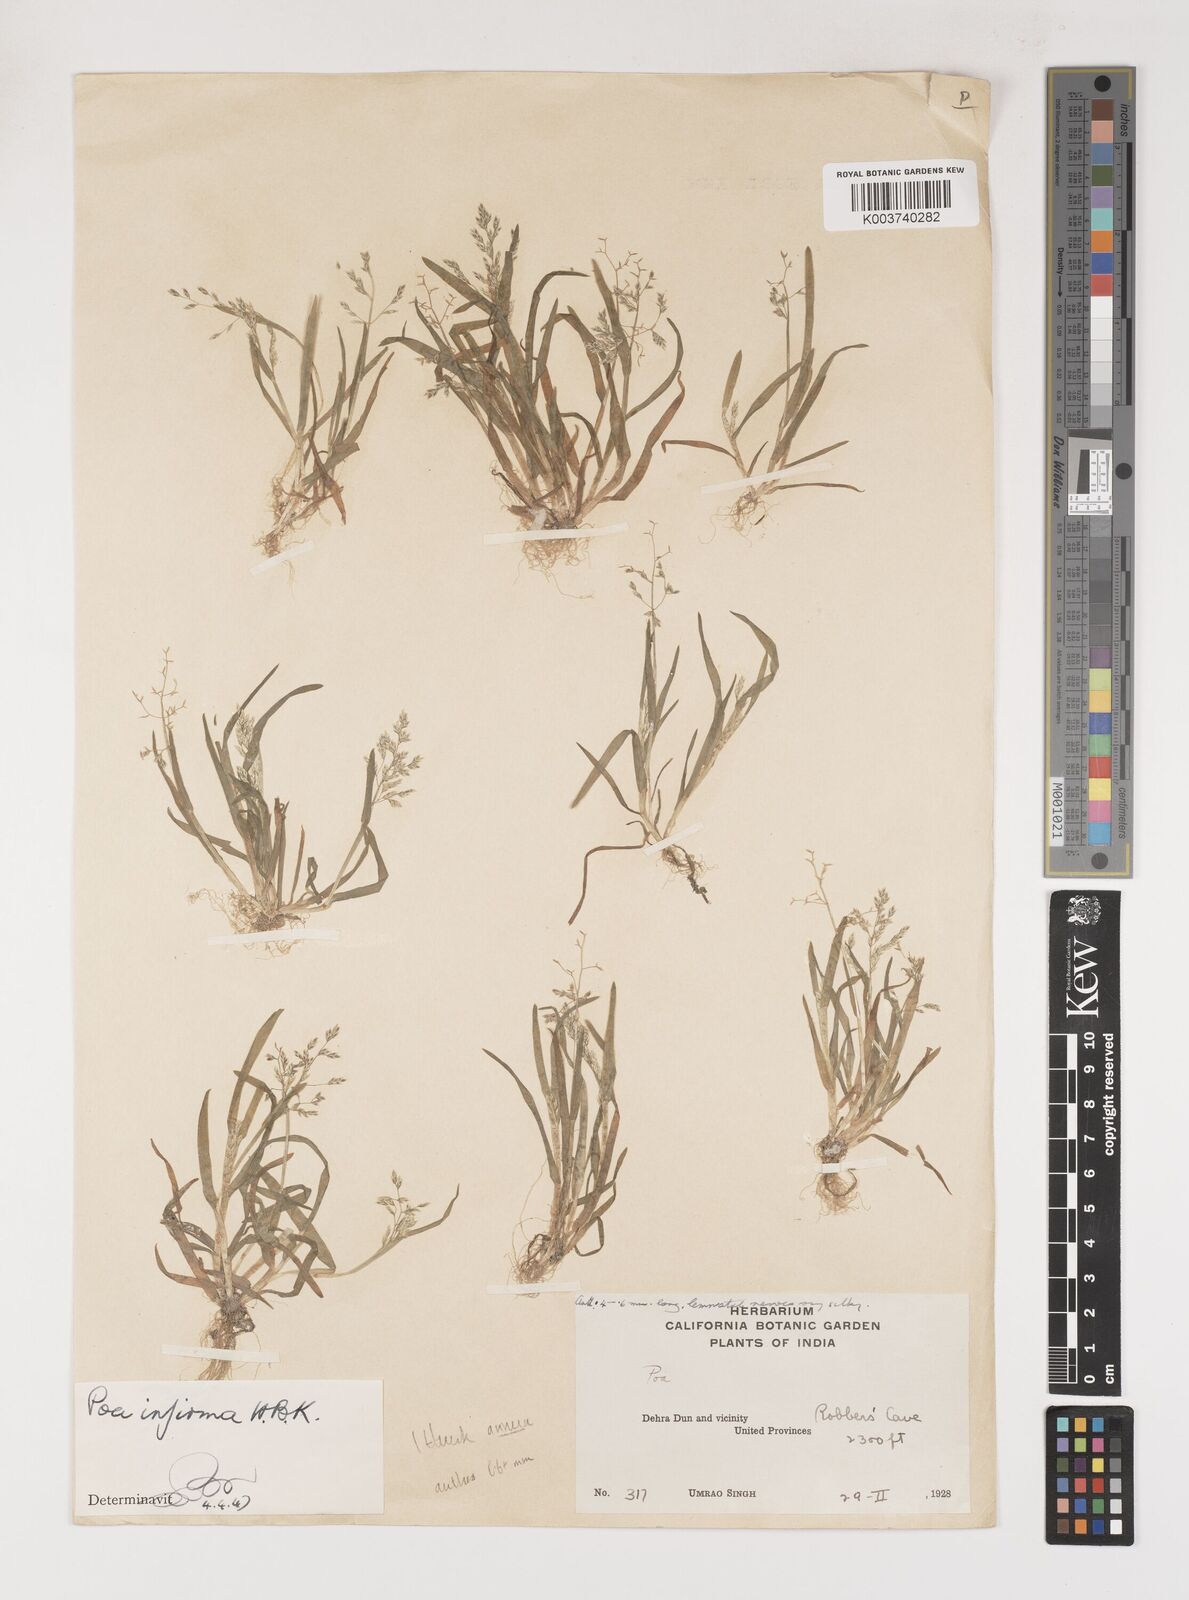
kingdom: Plantae
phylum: Tracheophyta
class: Liliopsida
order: Poales
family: Poaceae
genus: Poa
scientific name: Poa annua
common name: Annual bluegrass
